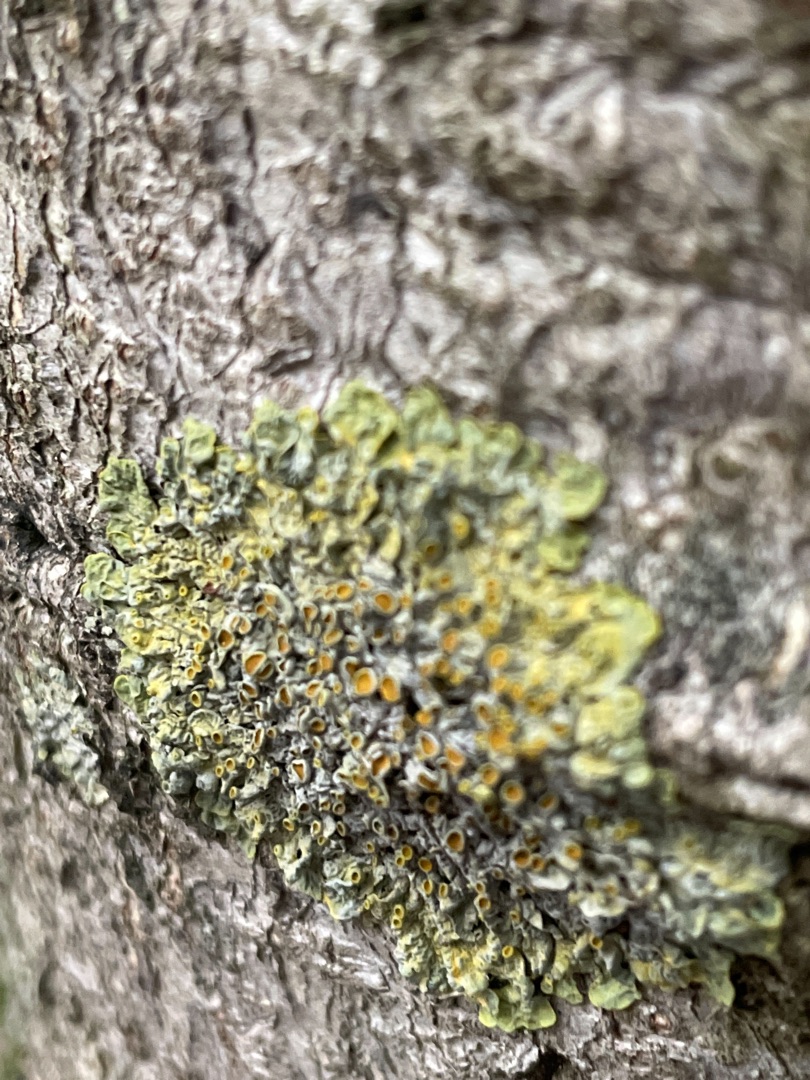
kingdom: Fungi
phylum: Ascomycota
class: Lecanoromycetes
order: Teloschistales
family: Teloschistaceae
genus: Xanthoria
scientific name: Xanthoria parietina
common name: Almindelig væggelav
